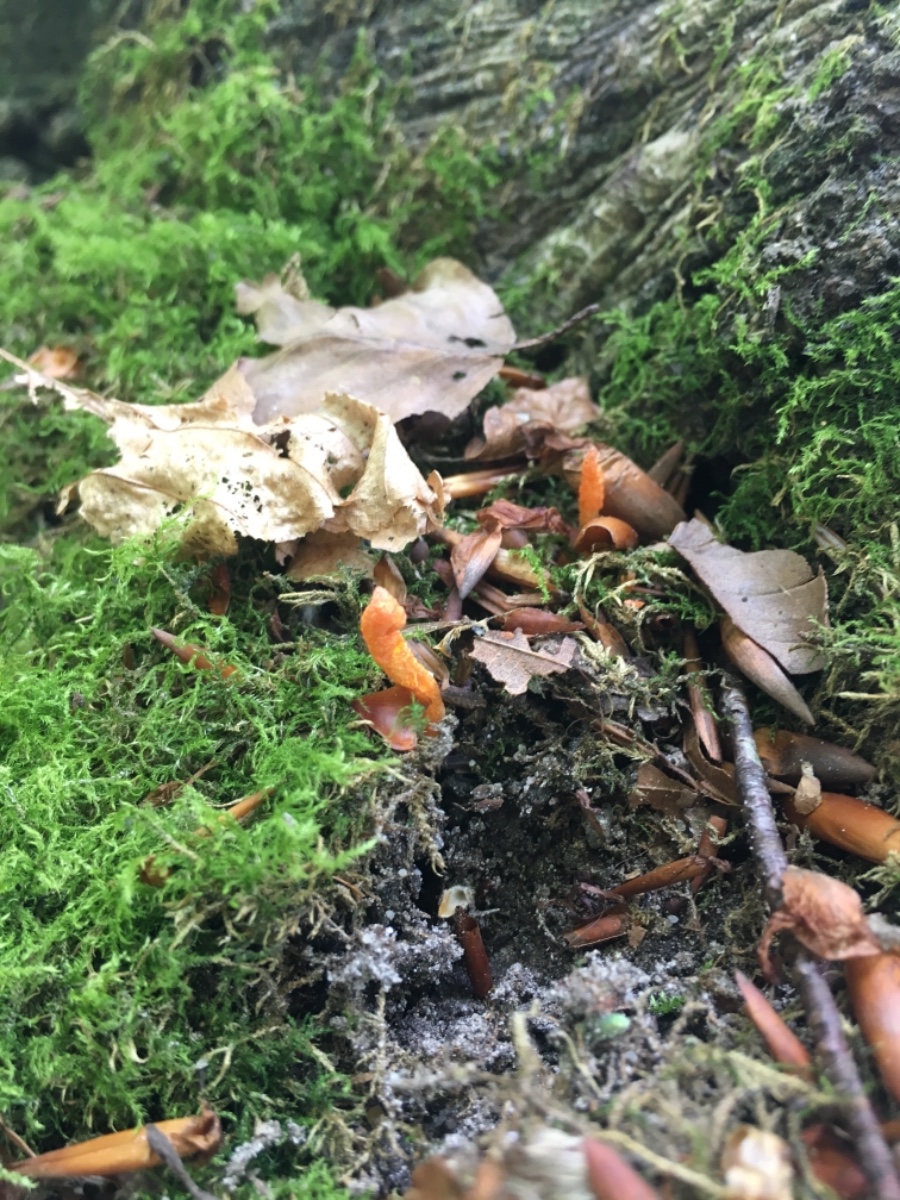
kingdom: Fungi
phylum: Ascomycota
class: Sordariomycetes
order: Hypocreales
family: Cordycipitaceae
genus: Cordyceps
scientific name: Cordyceps militaris
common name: puppe-snyltekølle
